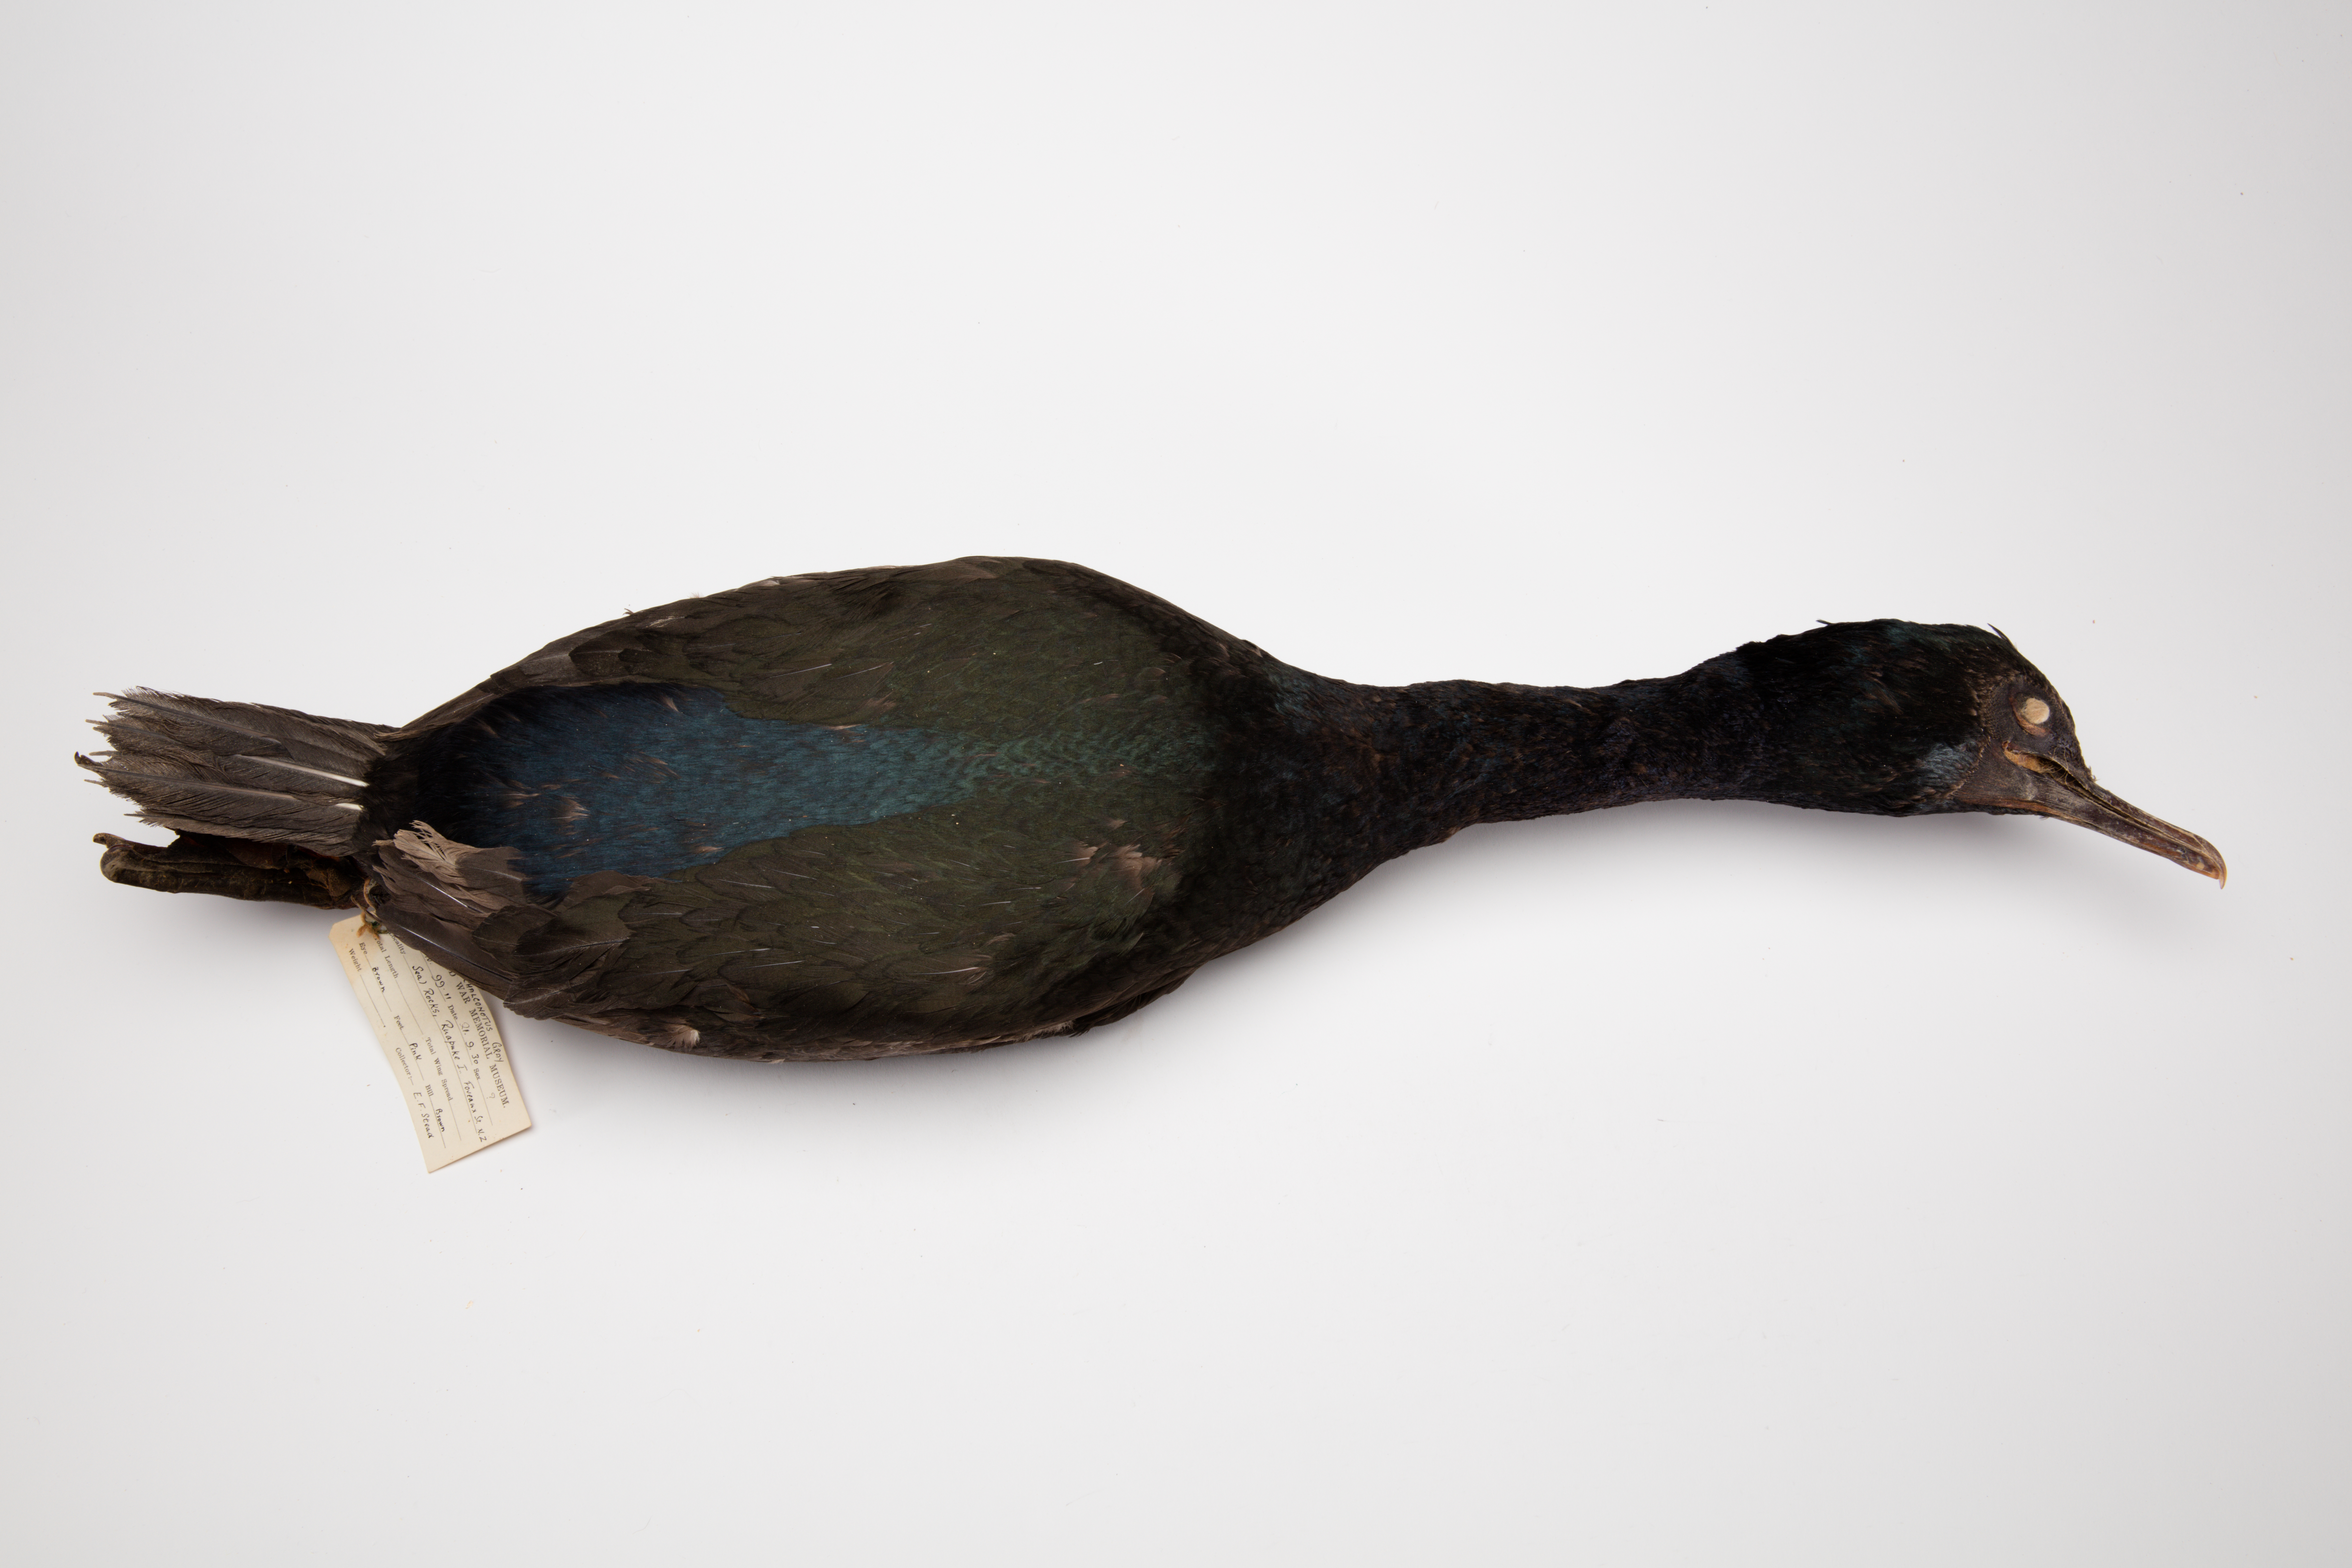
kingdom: Animalia
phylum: Chordata
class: Aves
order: Suliformes
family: Phalacrocoracidae
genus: Leucocarbo
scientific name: Leucocarbo chalconotus
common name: Stewart shag
